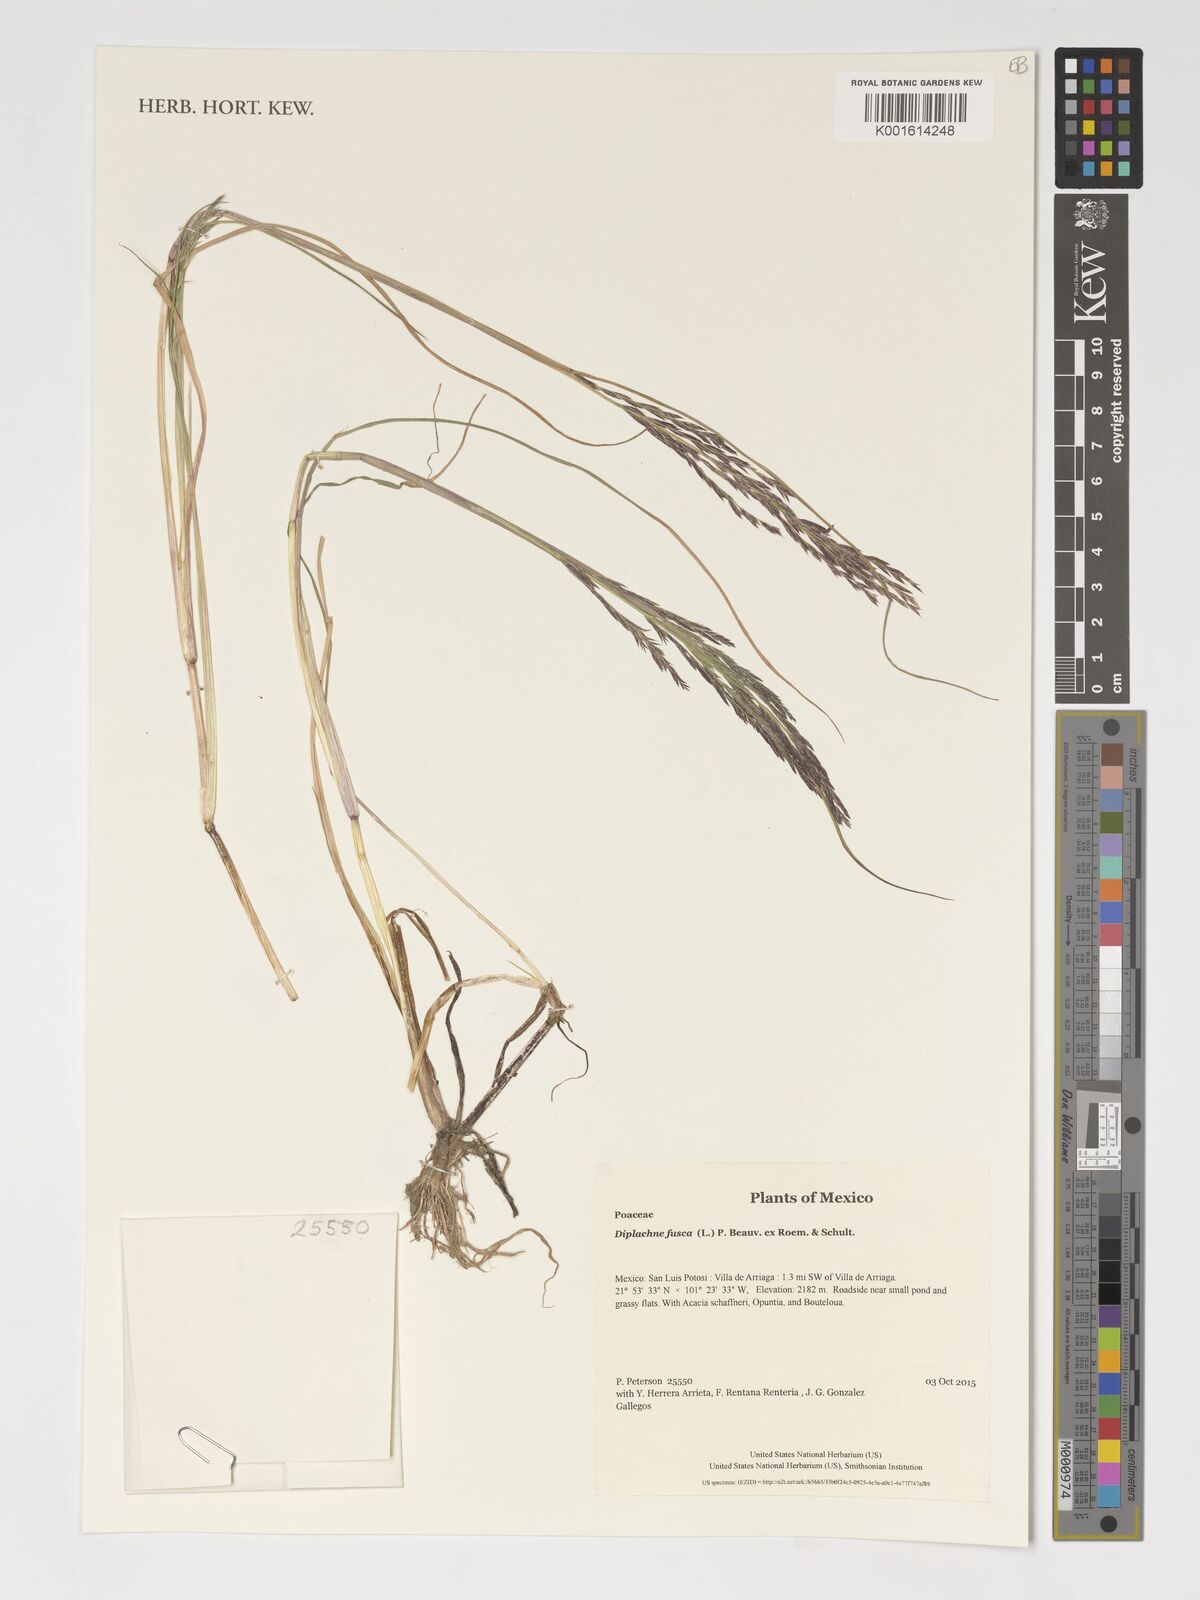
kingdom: Plantae
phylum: Tracheophyta
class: Liliopsida
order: Poales
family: Poaceae
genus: Diplachne
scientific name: Diplachne fusca
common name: Brown beetle grass
